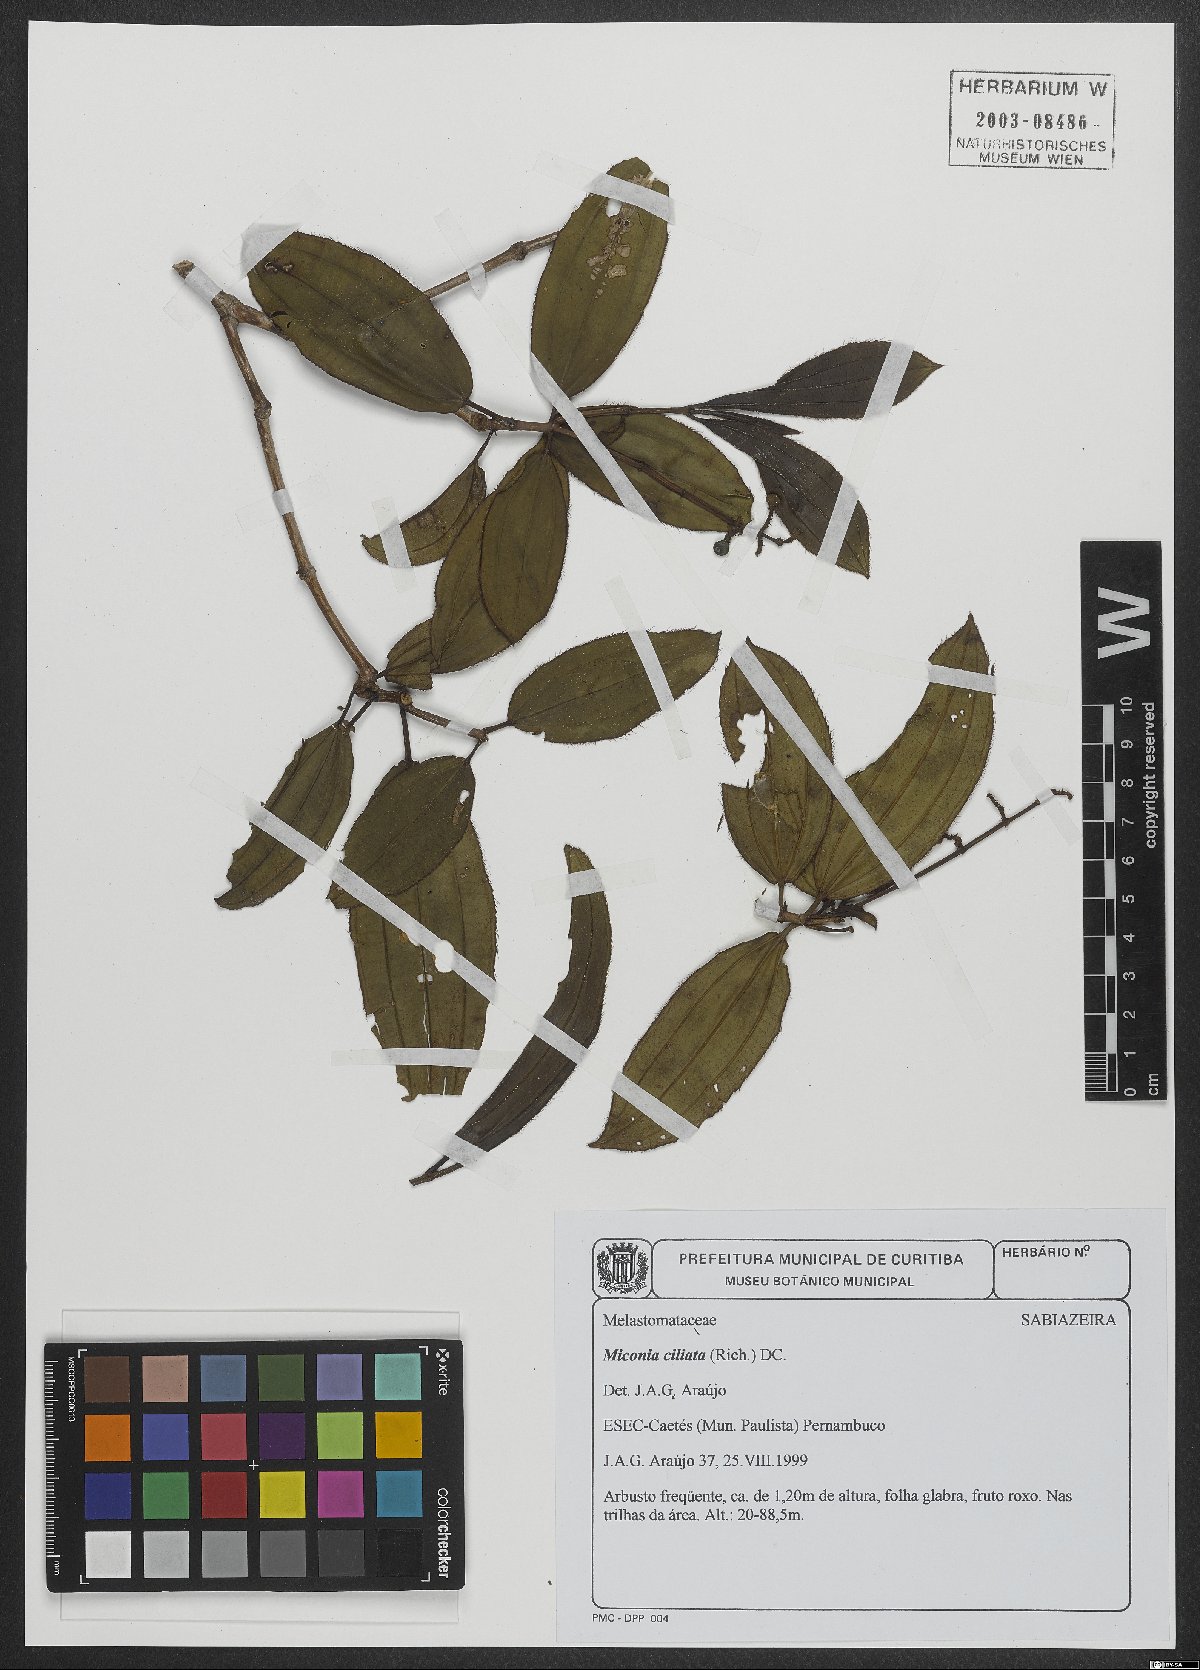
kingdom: Plantae
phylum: Tracheophyta
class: Magnoliopsida
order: Myrtales
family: Melastomataceae
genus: Miconia
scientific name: Miconia ciliata
